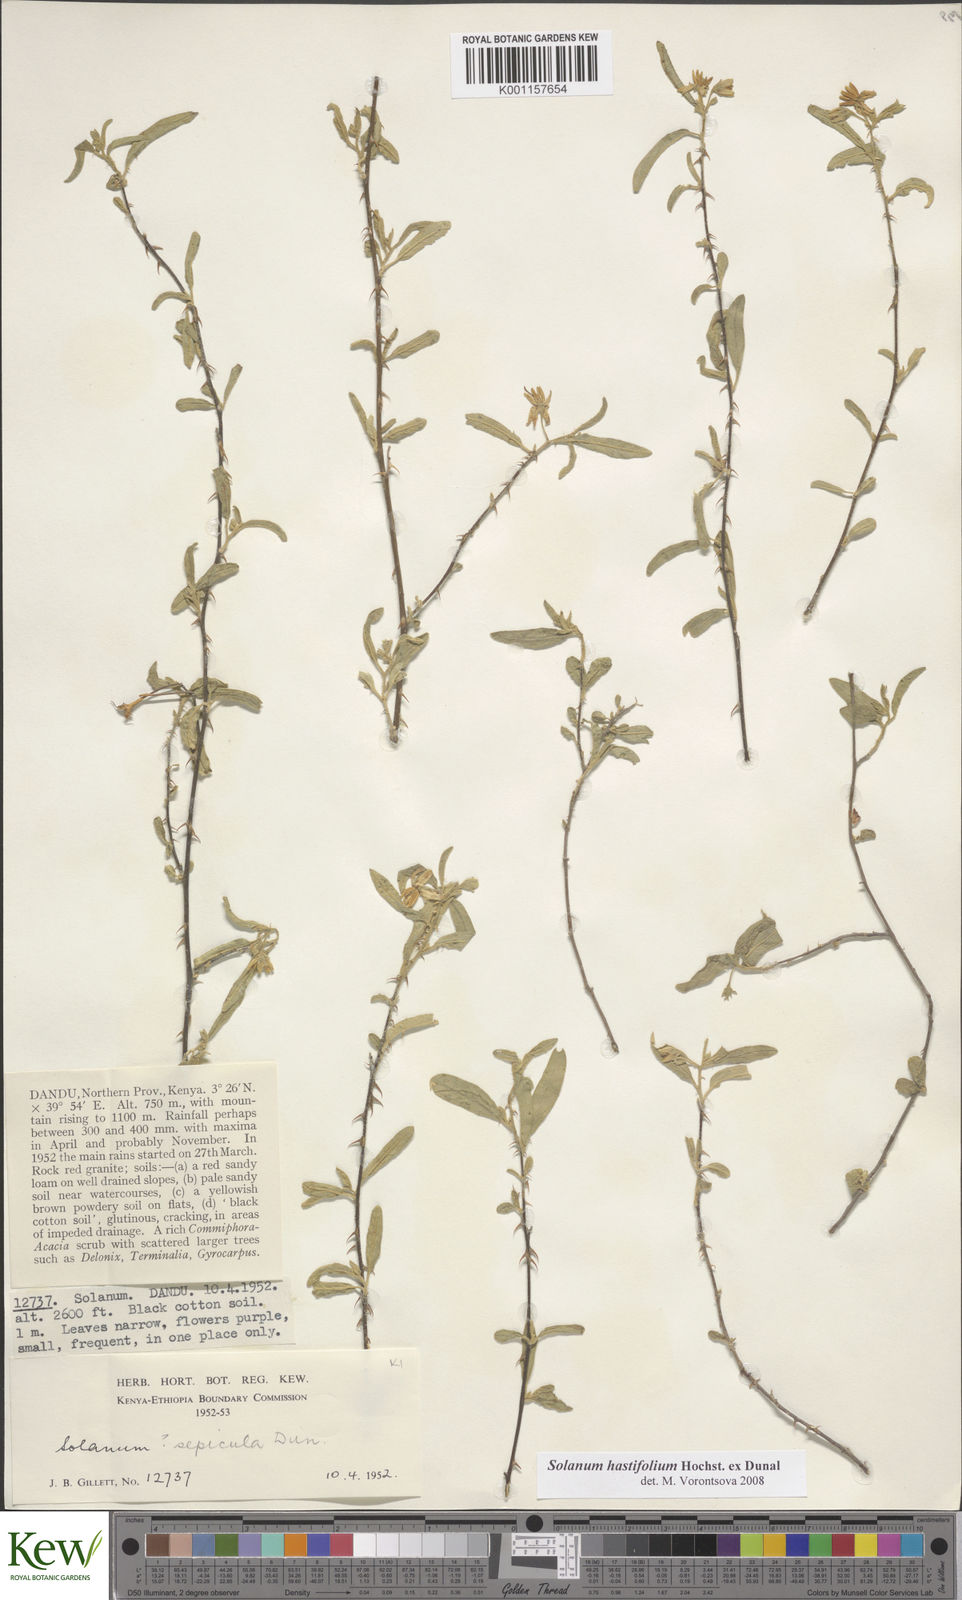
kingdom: Plantae
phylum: Tracheophyta
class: Magnoliopsida
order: Solanales
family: Solanaceae
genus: Solanum
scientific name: Solanum hastifolium
